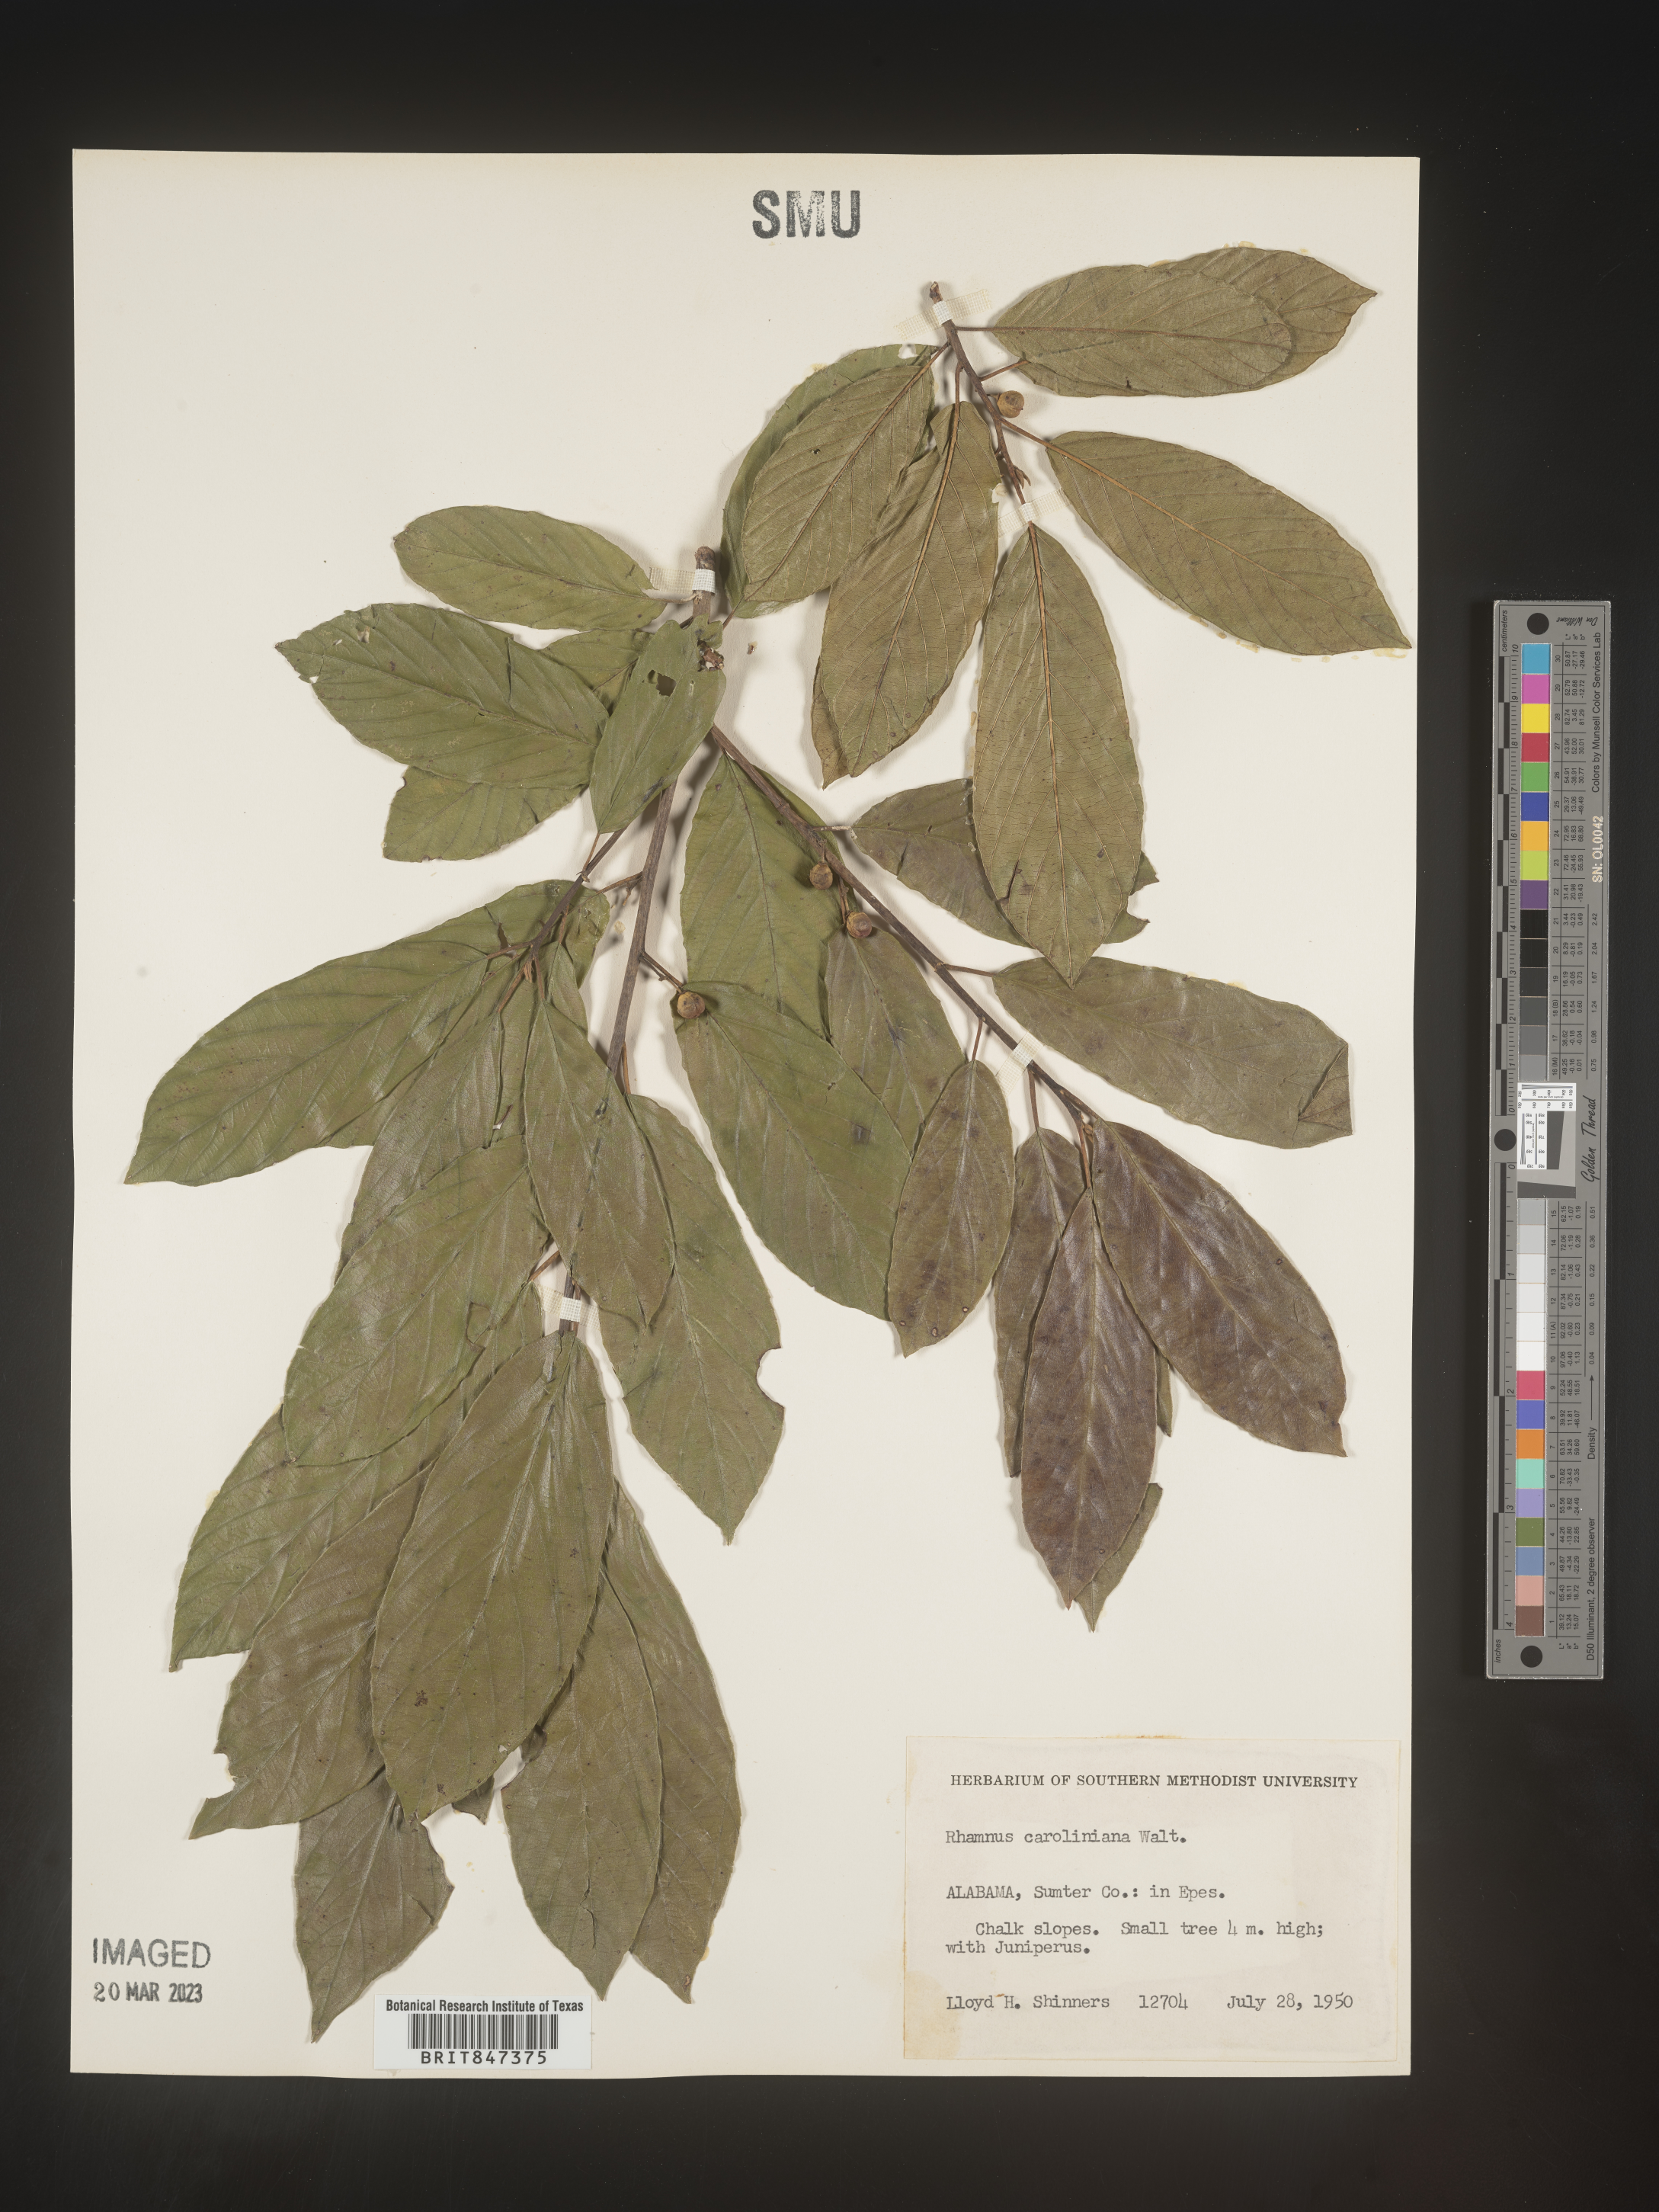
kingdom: Plantae
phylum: Tracheophyta
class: Magnoliopsida
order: Rosales
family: Rhamnaceae
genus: Frangula
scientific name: Frangula caroliniana
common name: Carolina buckthorn
